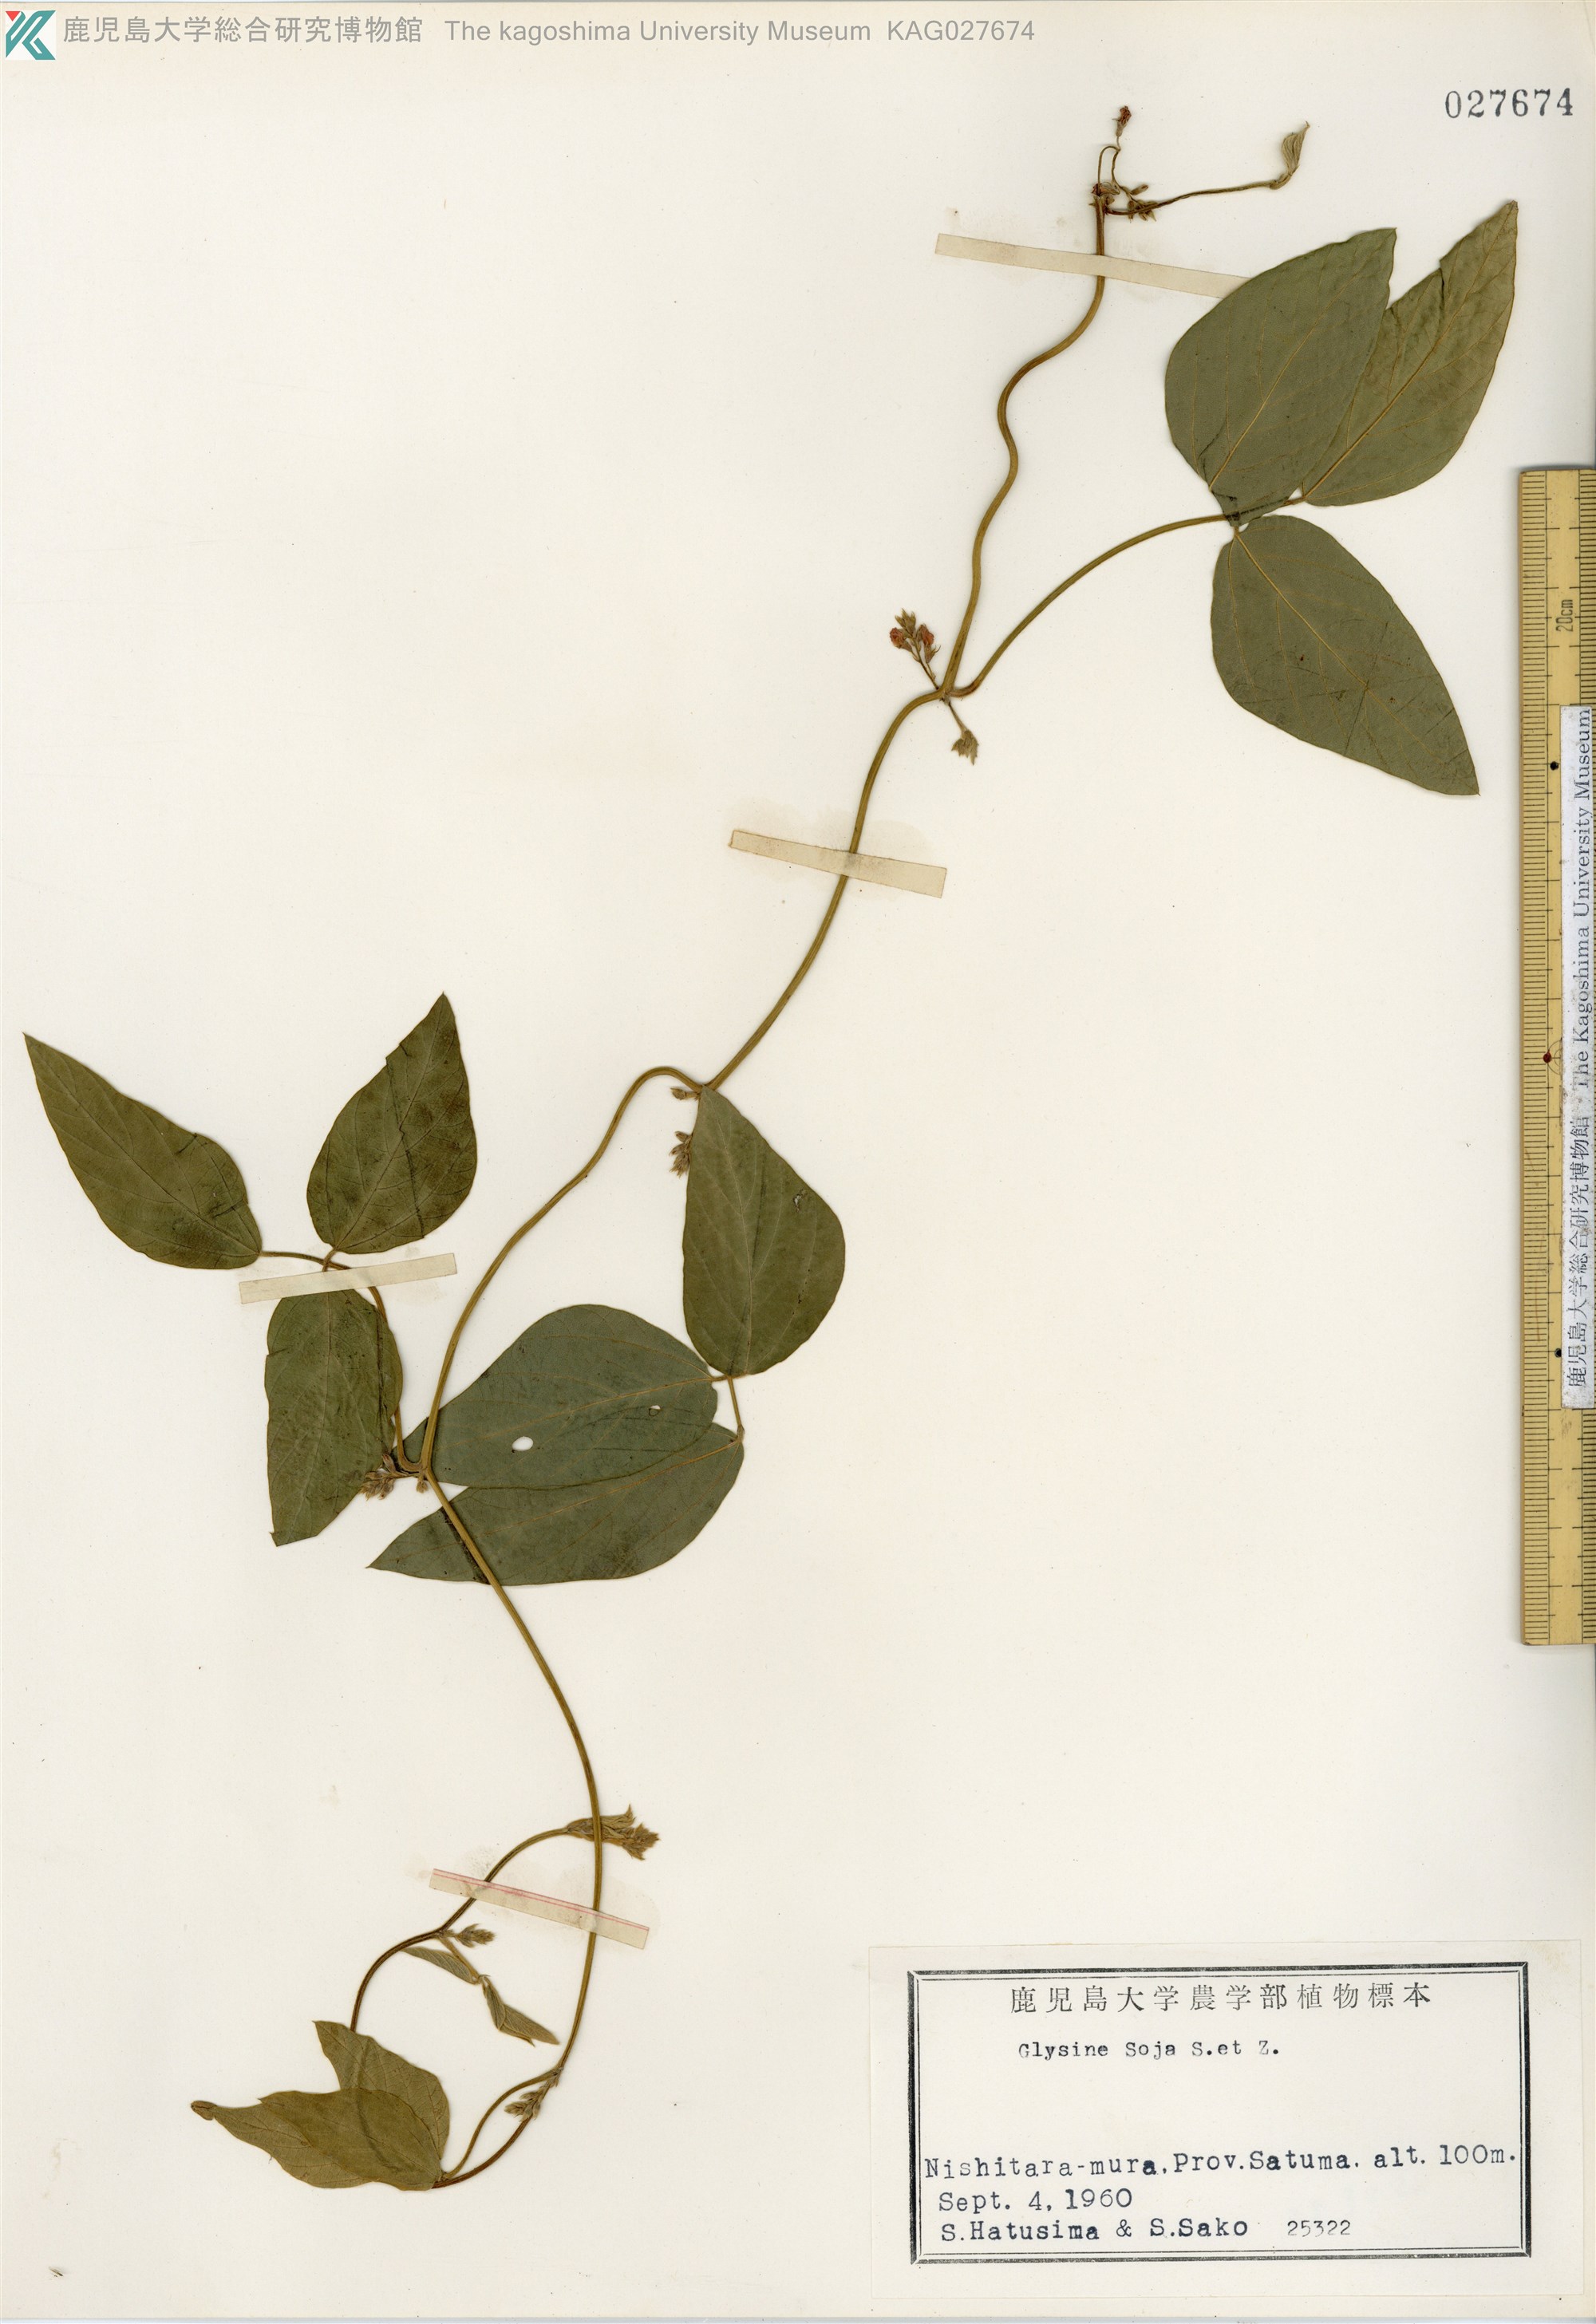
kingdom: Plantae
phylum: Tracheophyta
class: Magnoliopsida
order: Fabales
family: Fabaceae
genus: Glycine
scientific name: Glycine max
